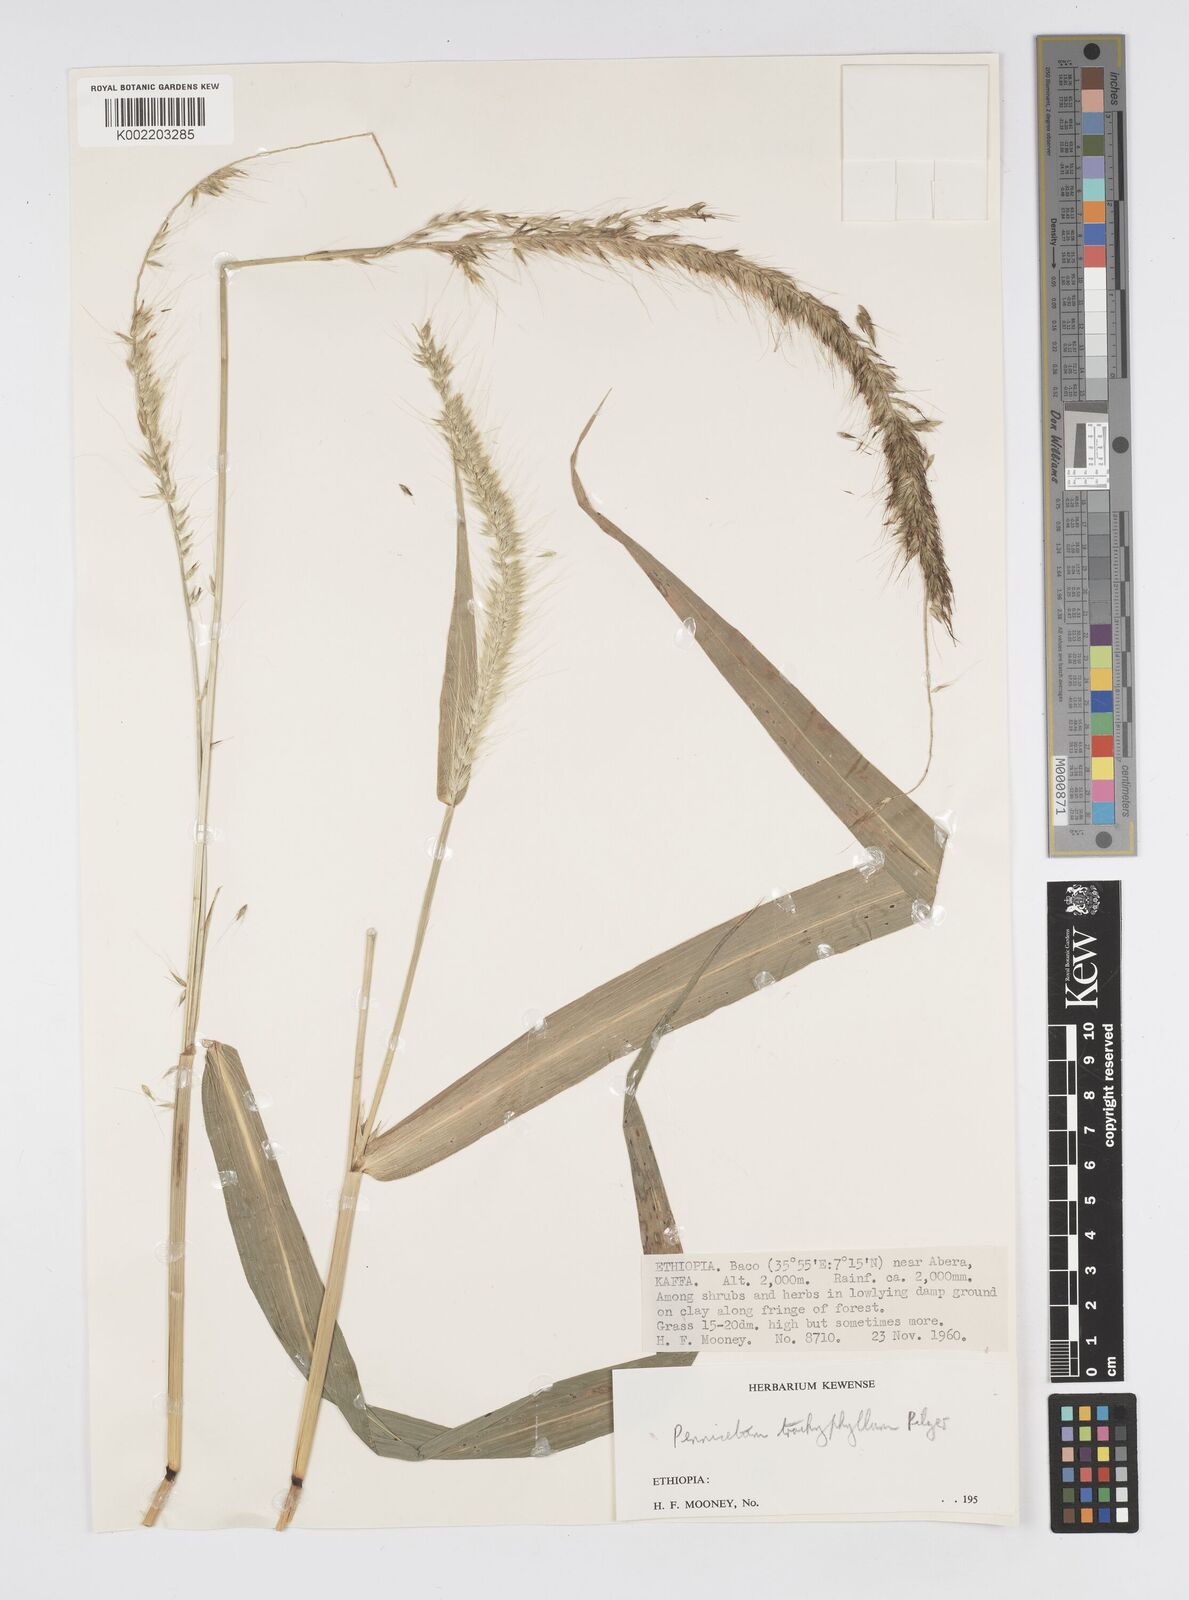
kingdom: Plantae
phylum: Tracheophyta
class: Liliopsida
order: Poales
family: Poaceae
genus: Cenchrus
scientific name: Cenchrus trachyphyllus
